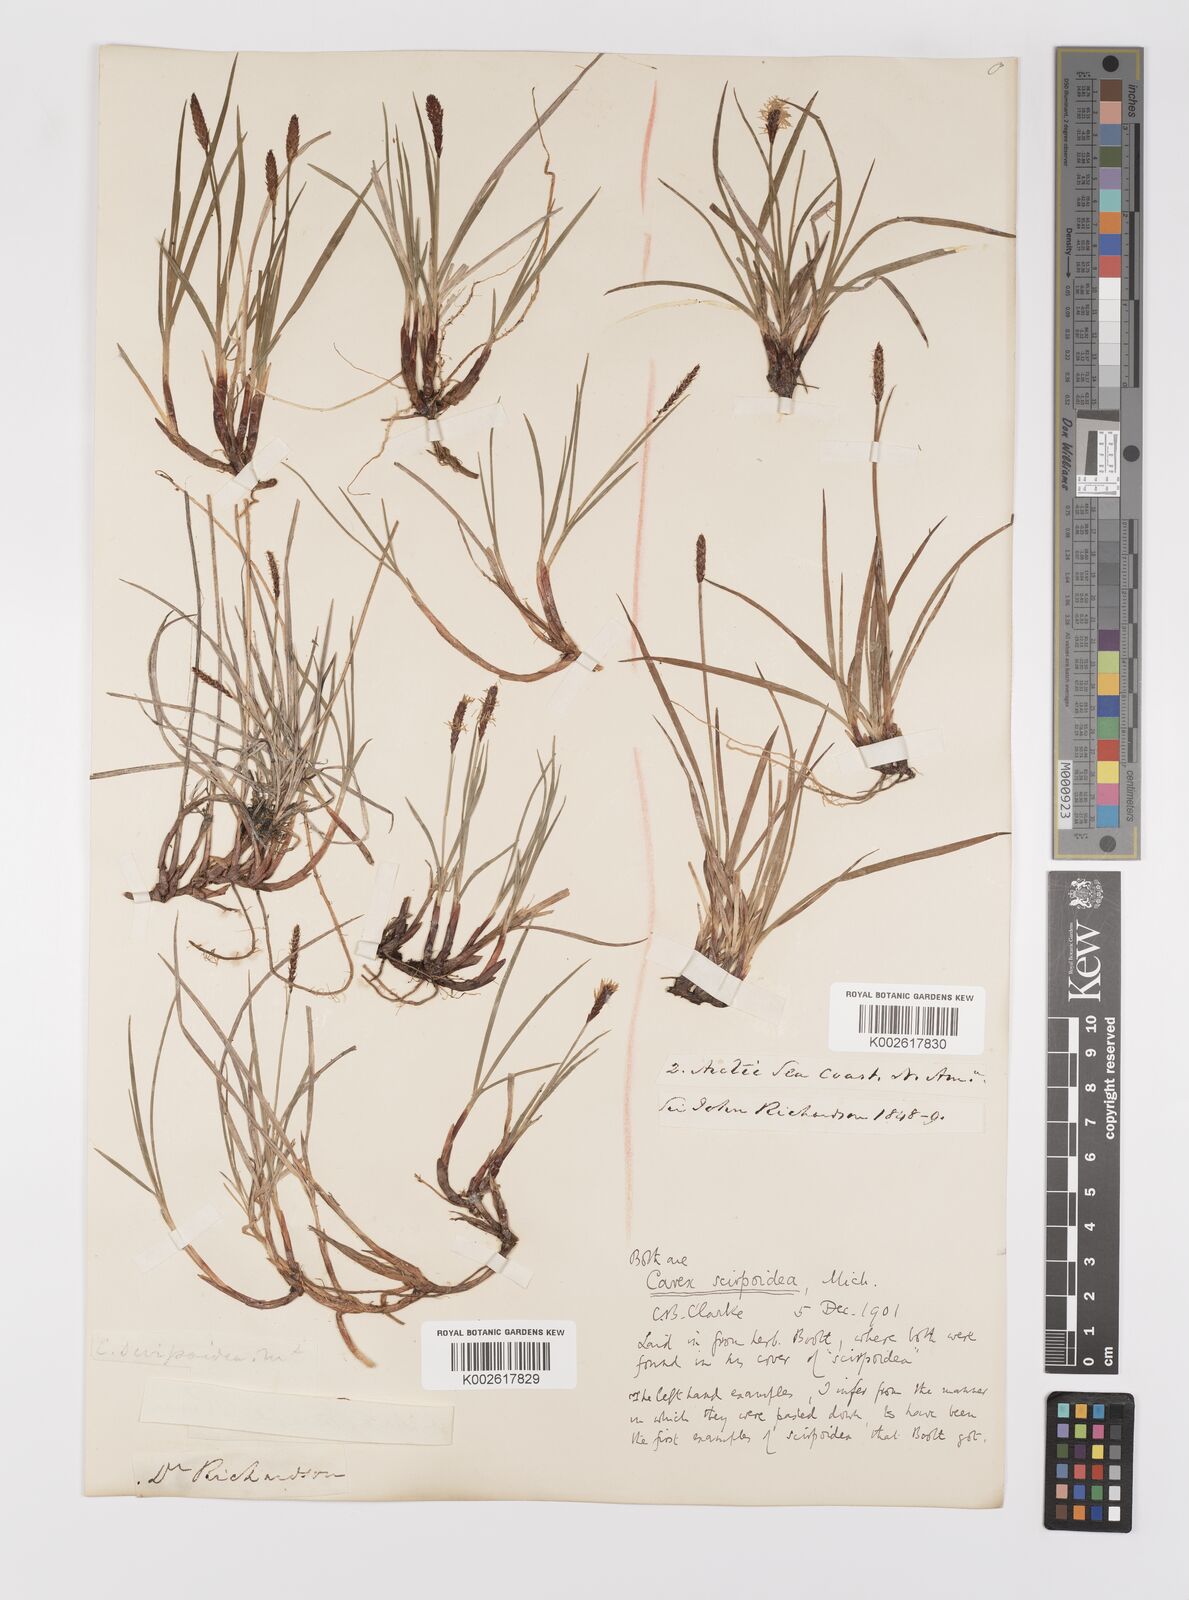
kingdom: Plantae
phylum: Tracheophyta
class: Liliopsida
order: Poales
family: Cyperaceae
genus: Carex
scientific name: Carex scirpoidea
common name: Canada single-spike sedge
